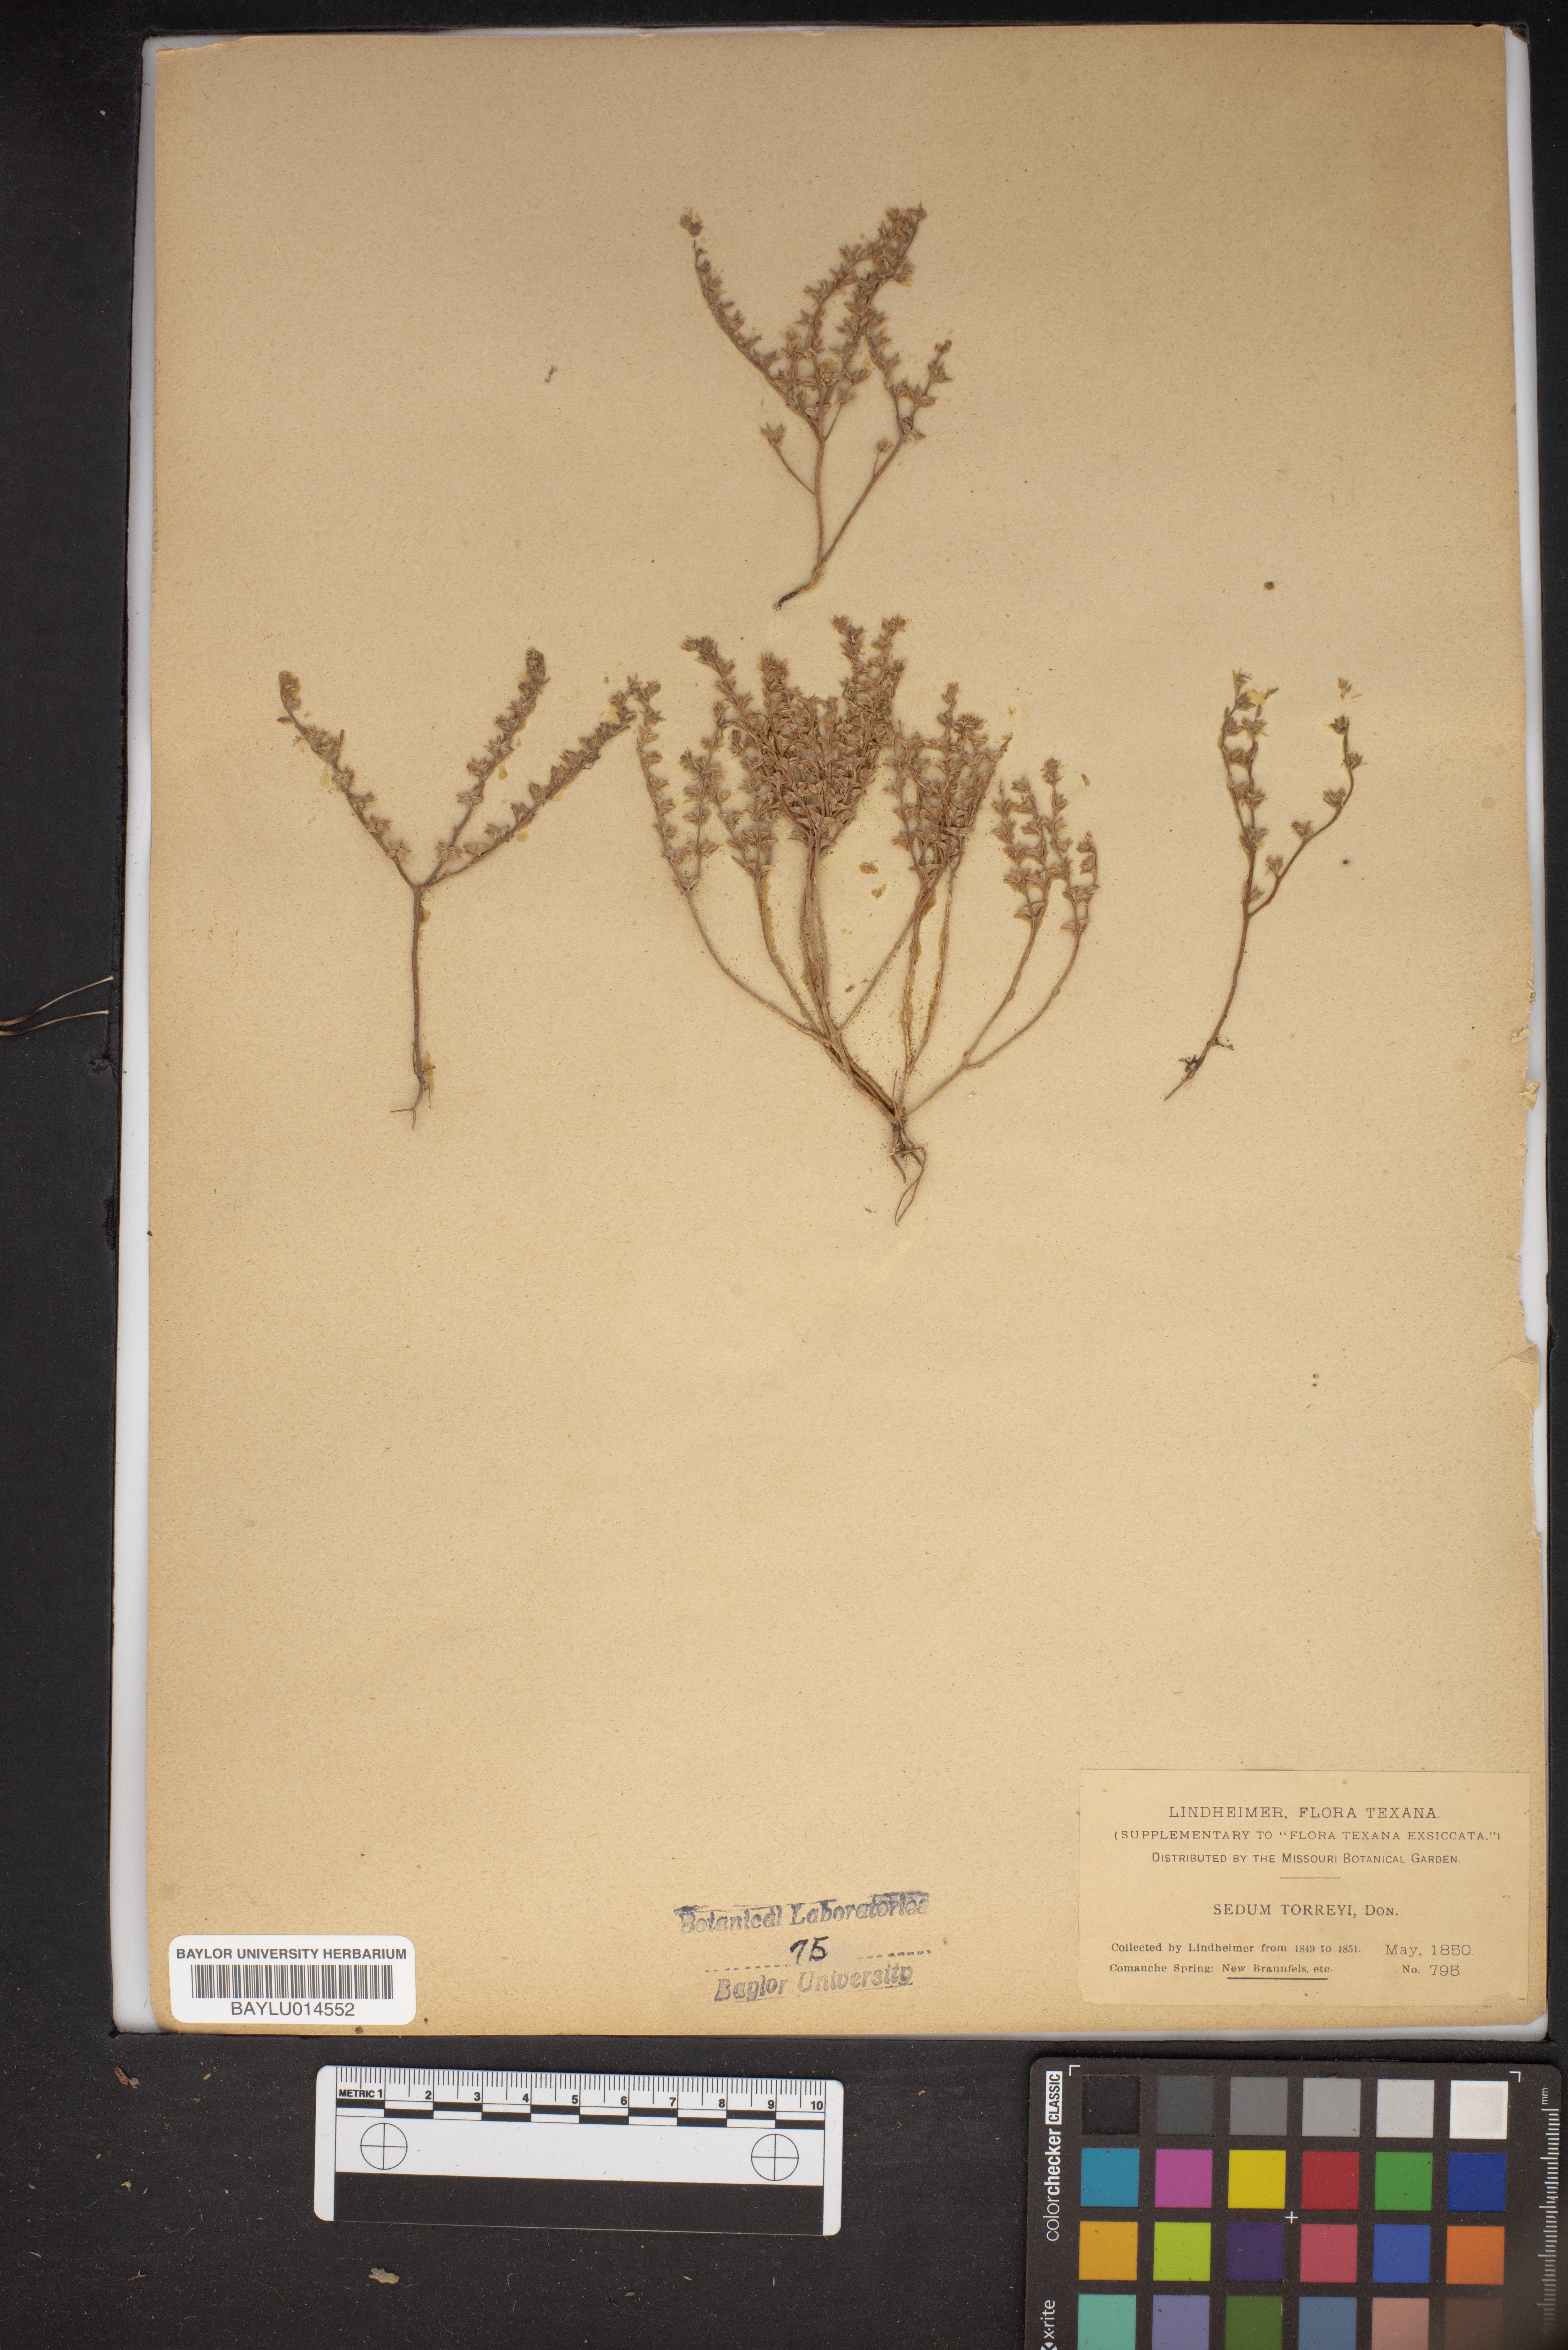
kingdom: Plantae
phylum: Tracheophyta
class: Magnoliopsida
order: Saxifragales
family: Crassulaceae
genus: Sedum
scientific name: Sedum nuttallii
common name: Yellow stonecrop
